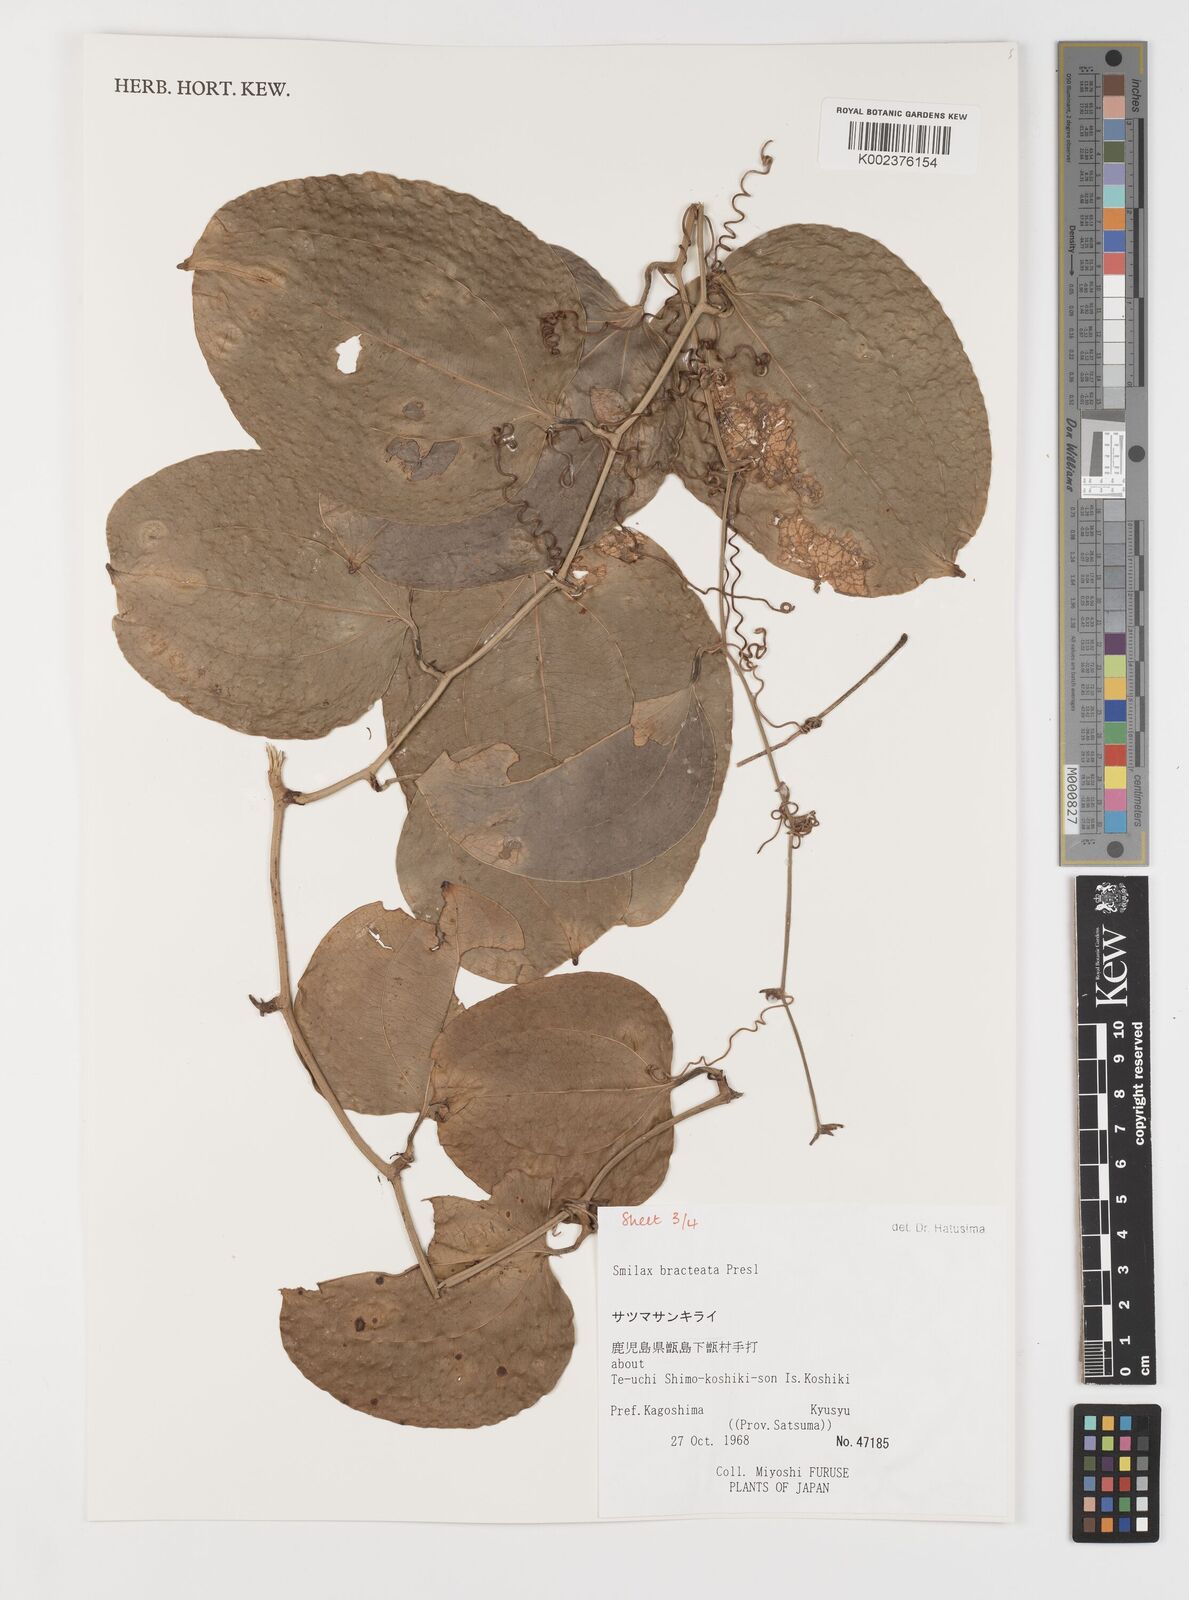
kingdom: Plantae
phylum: Tracheophyta
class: Liliopsida
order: Liliales
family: Smilacaceae
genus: Smilax
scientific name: Smilax bracteata
